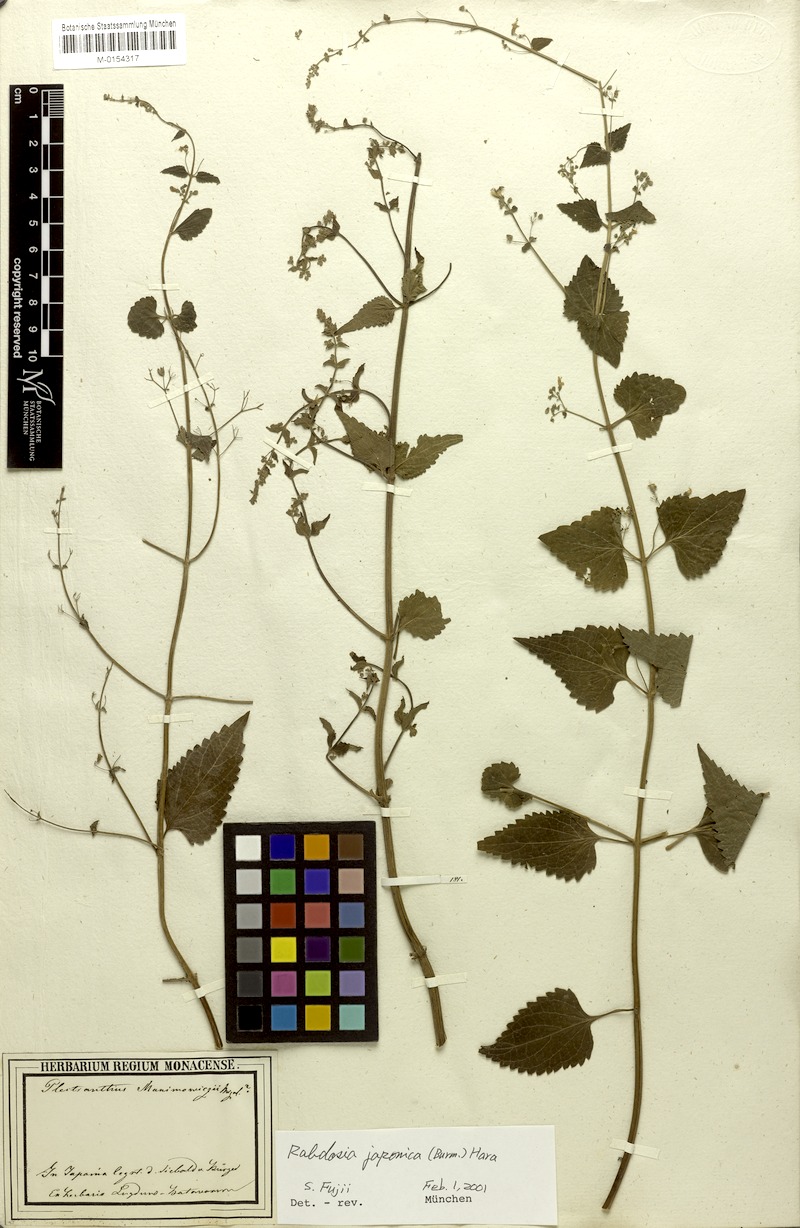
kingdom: Plantae
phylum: Tracheophyta
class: Magnoliopsida
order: Lamiales
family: Lamiaceae
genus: Isodon
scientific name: Isodon japonicus
